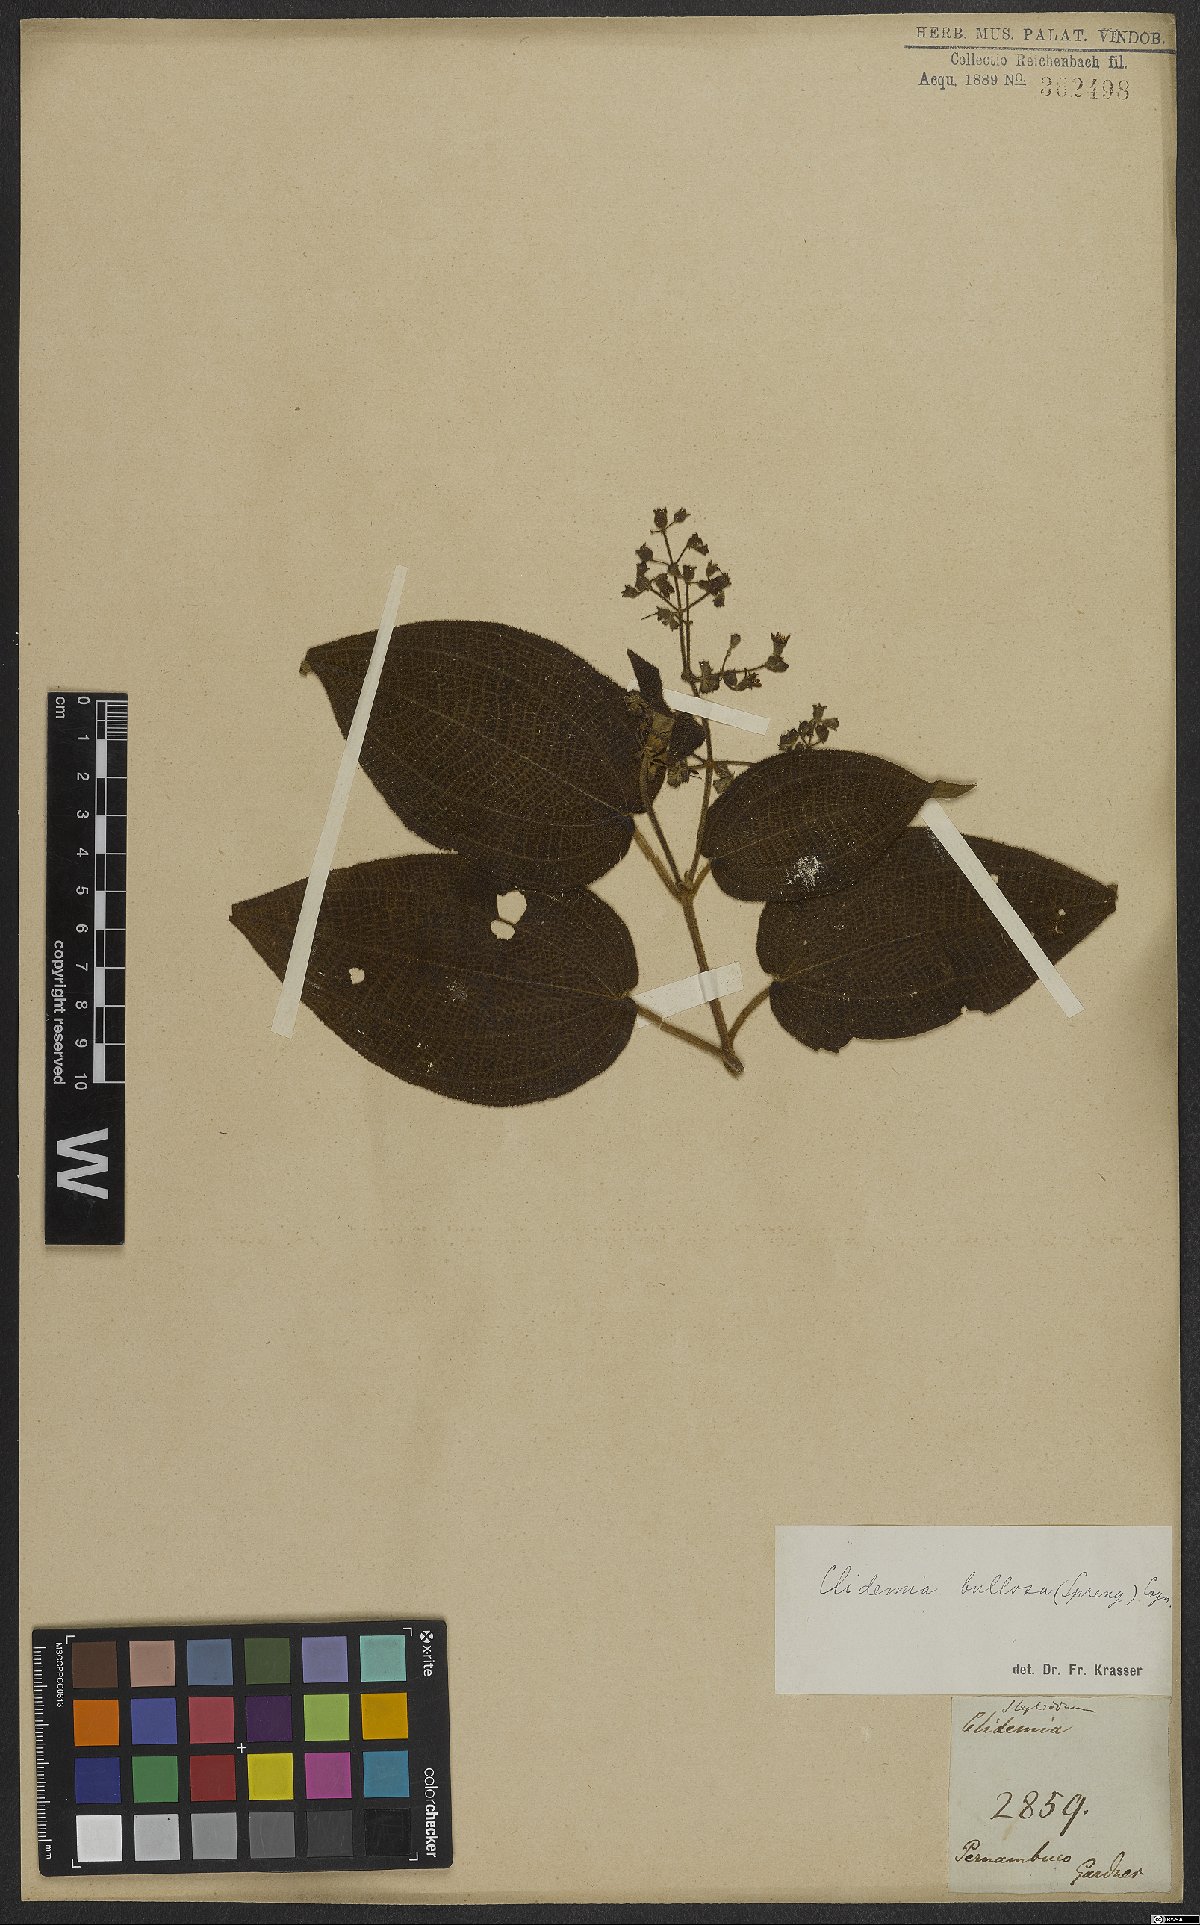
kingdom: Plantae
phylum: Tracheophyta
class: Magnoliopsida
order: Myrtales
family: Melastomataceae
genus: Miconia
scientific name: Miconia bullosa
